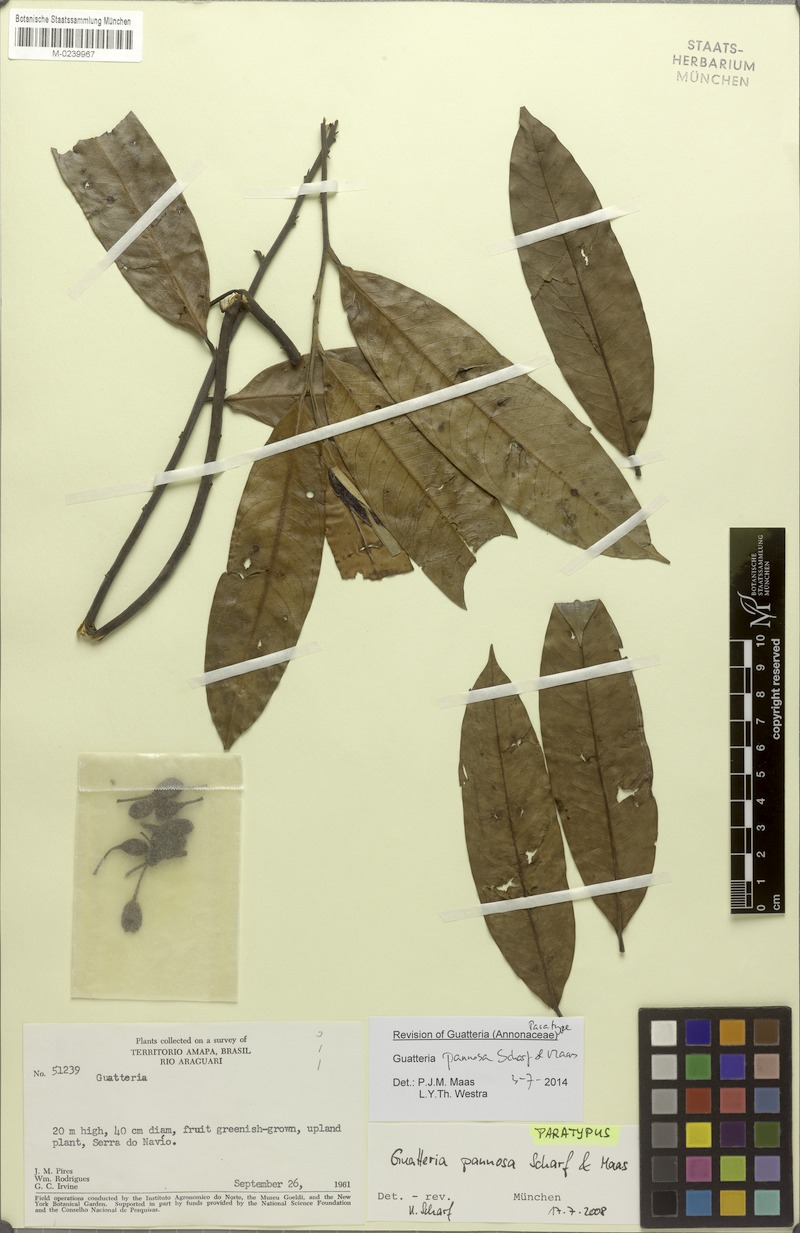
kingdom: Plantae
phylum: Tracheophyta
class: Magnoliopsida
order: Magnoliales
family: Annonaceae
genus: Guatteria
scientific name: Guatteria pannosa
